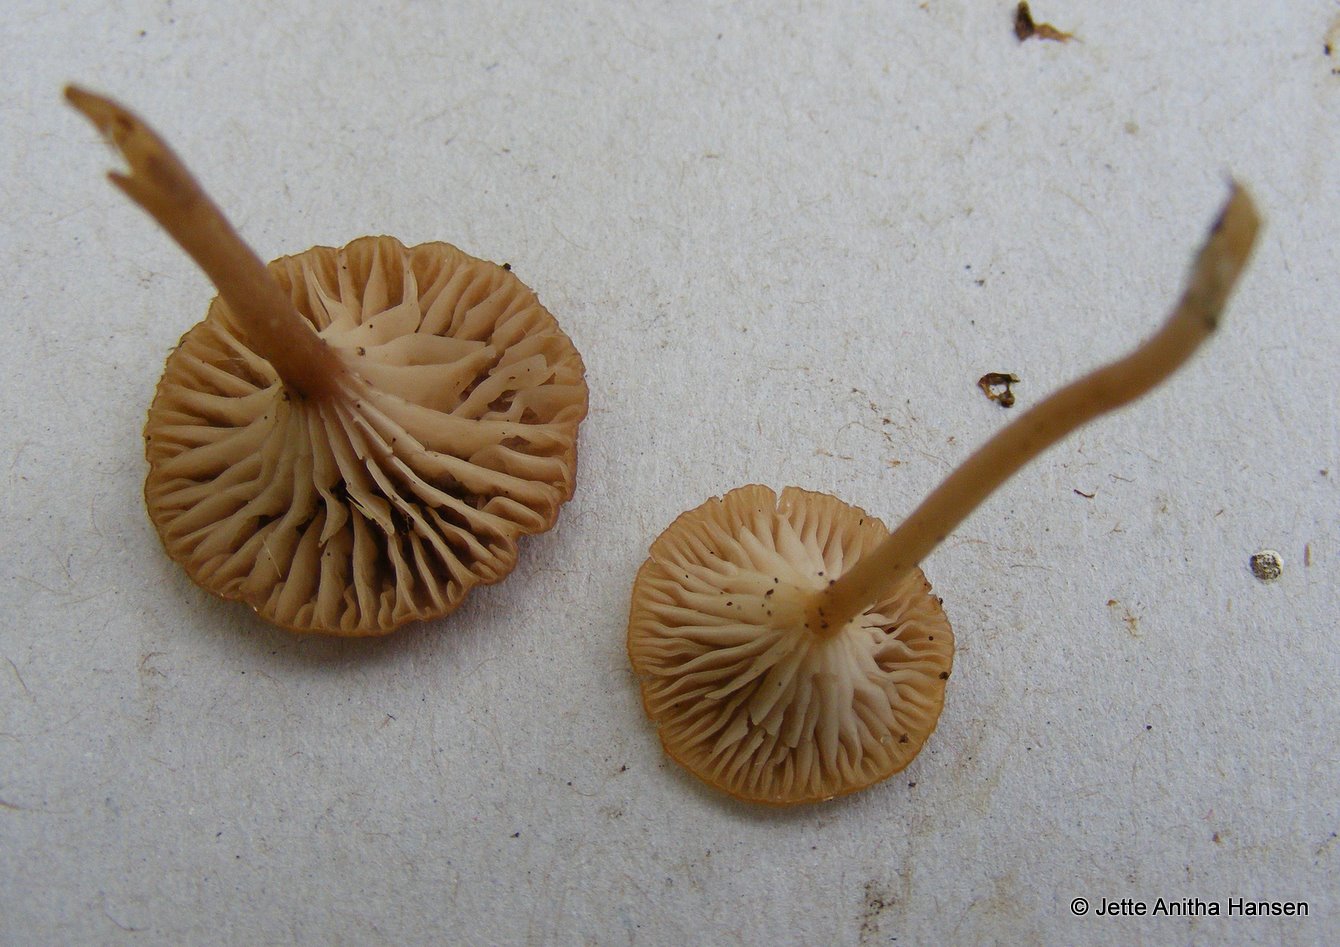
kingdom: Fungi
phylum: Basidiomycota
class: Agaricomycetes
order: Agaricales
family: Tricholomataceae
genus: Omphalina
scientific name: Omphalina pyxidata
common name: rødbrun navlehat
